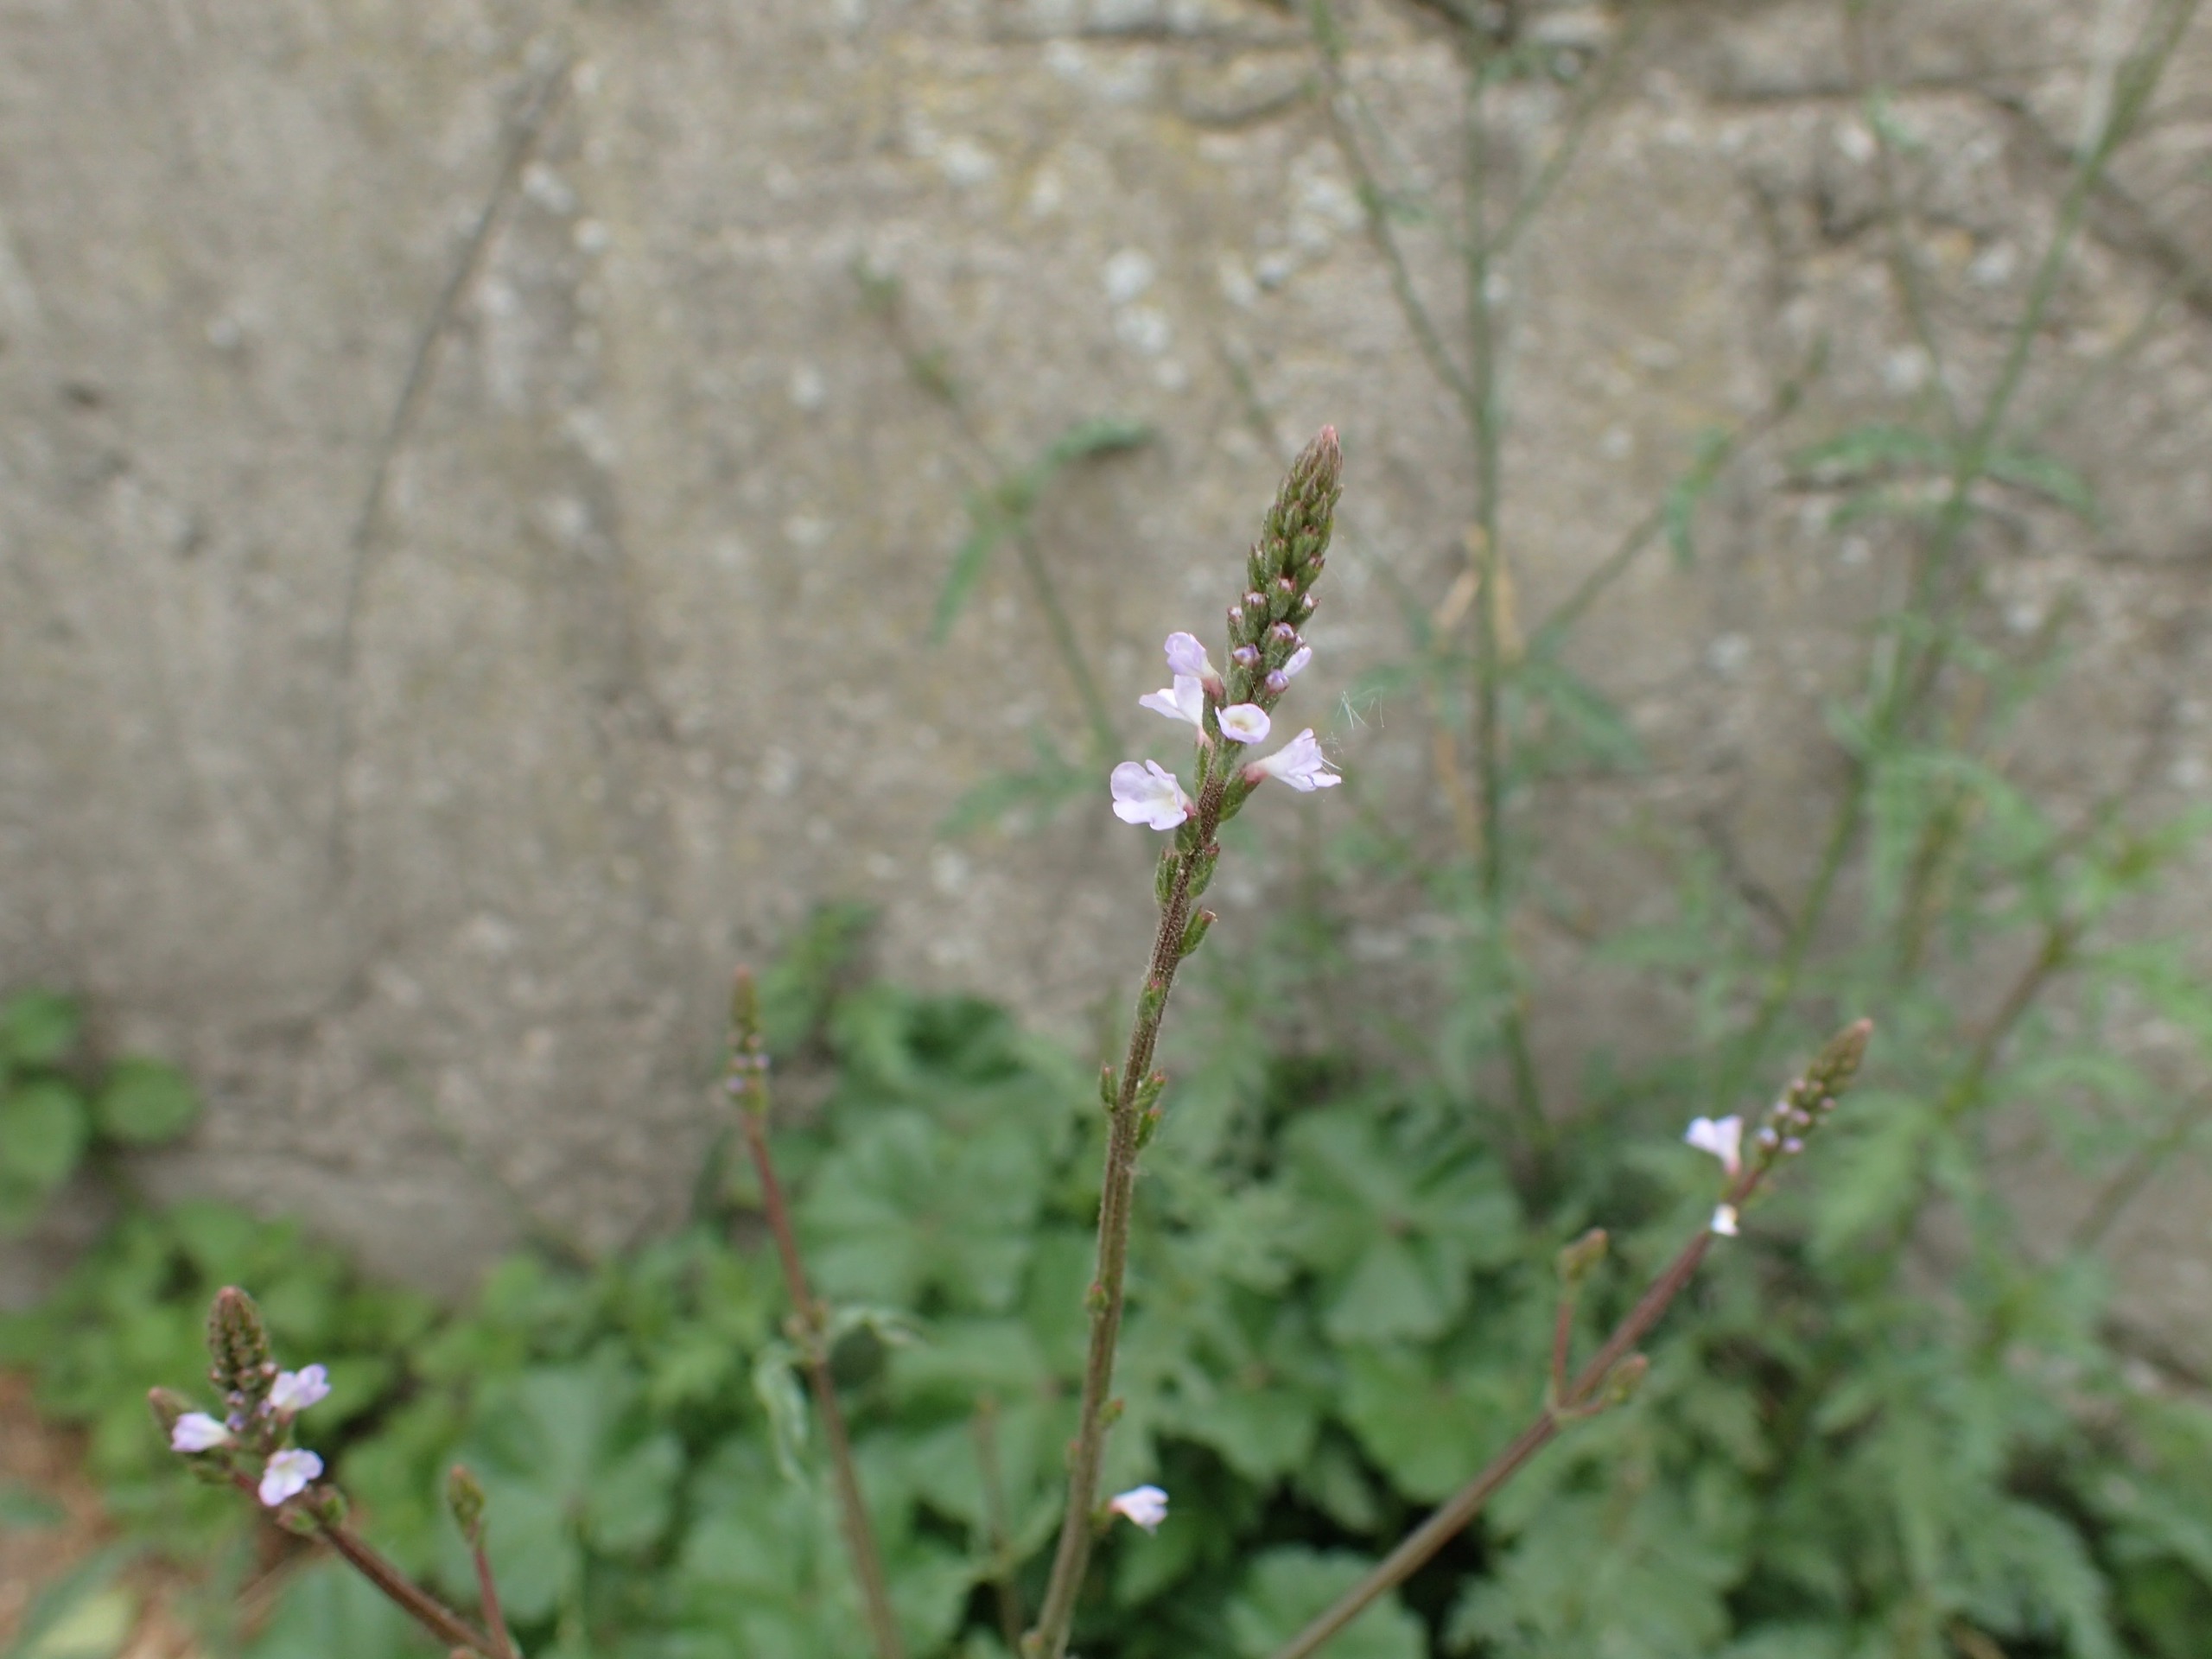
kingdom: Plantae
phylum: Tracheophyta
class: Magnoliopsida
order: Lamiales
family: Verbenaceae
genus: Verbena
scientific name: Verbena officinalis
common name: Læge-jernurt
